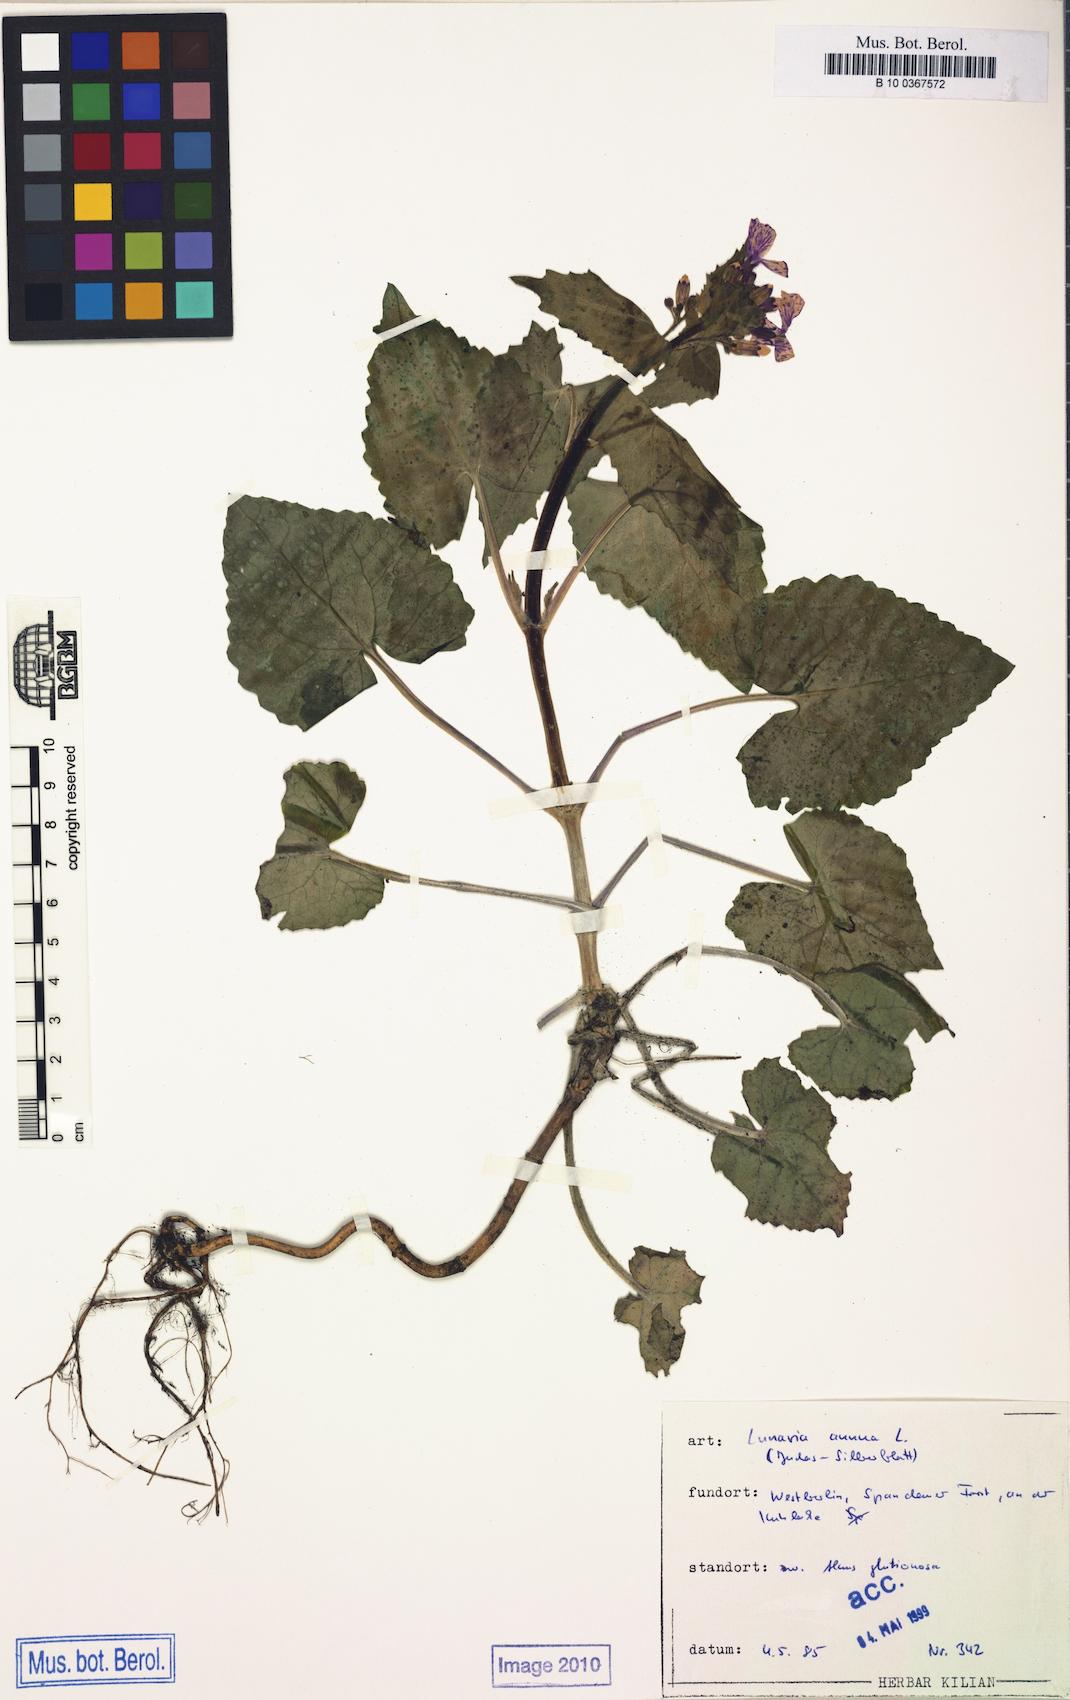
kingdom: Plantae
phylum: Tracheophyta
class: Magnoliopsida
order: Brassicales
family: Brassicaceae
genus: Lunaria
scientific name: Lunaria annua
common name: Honesty
